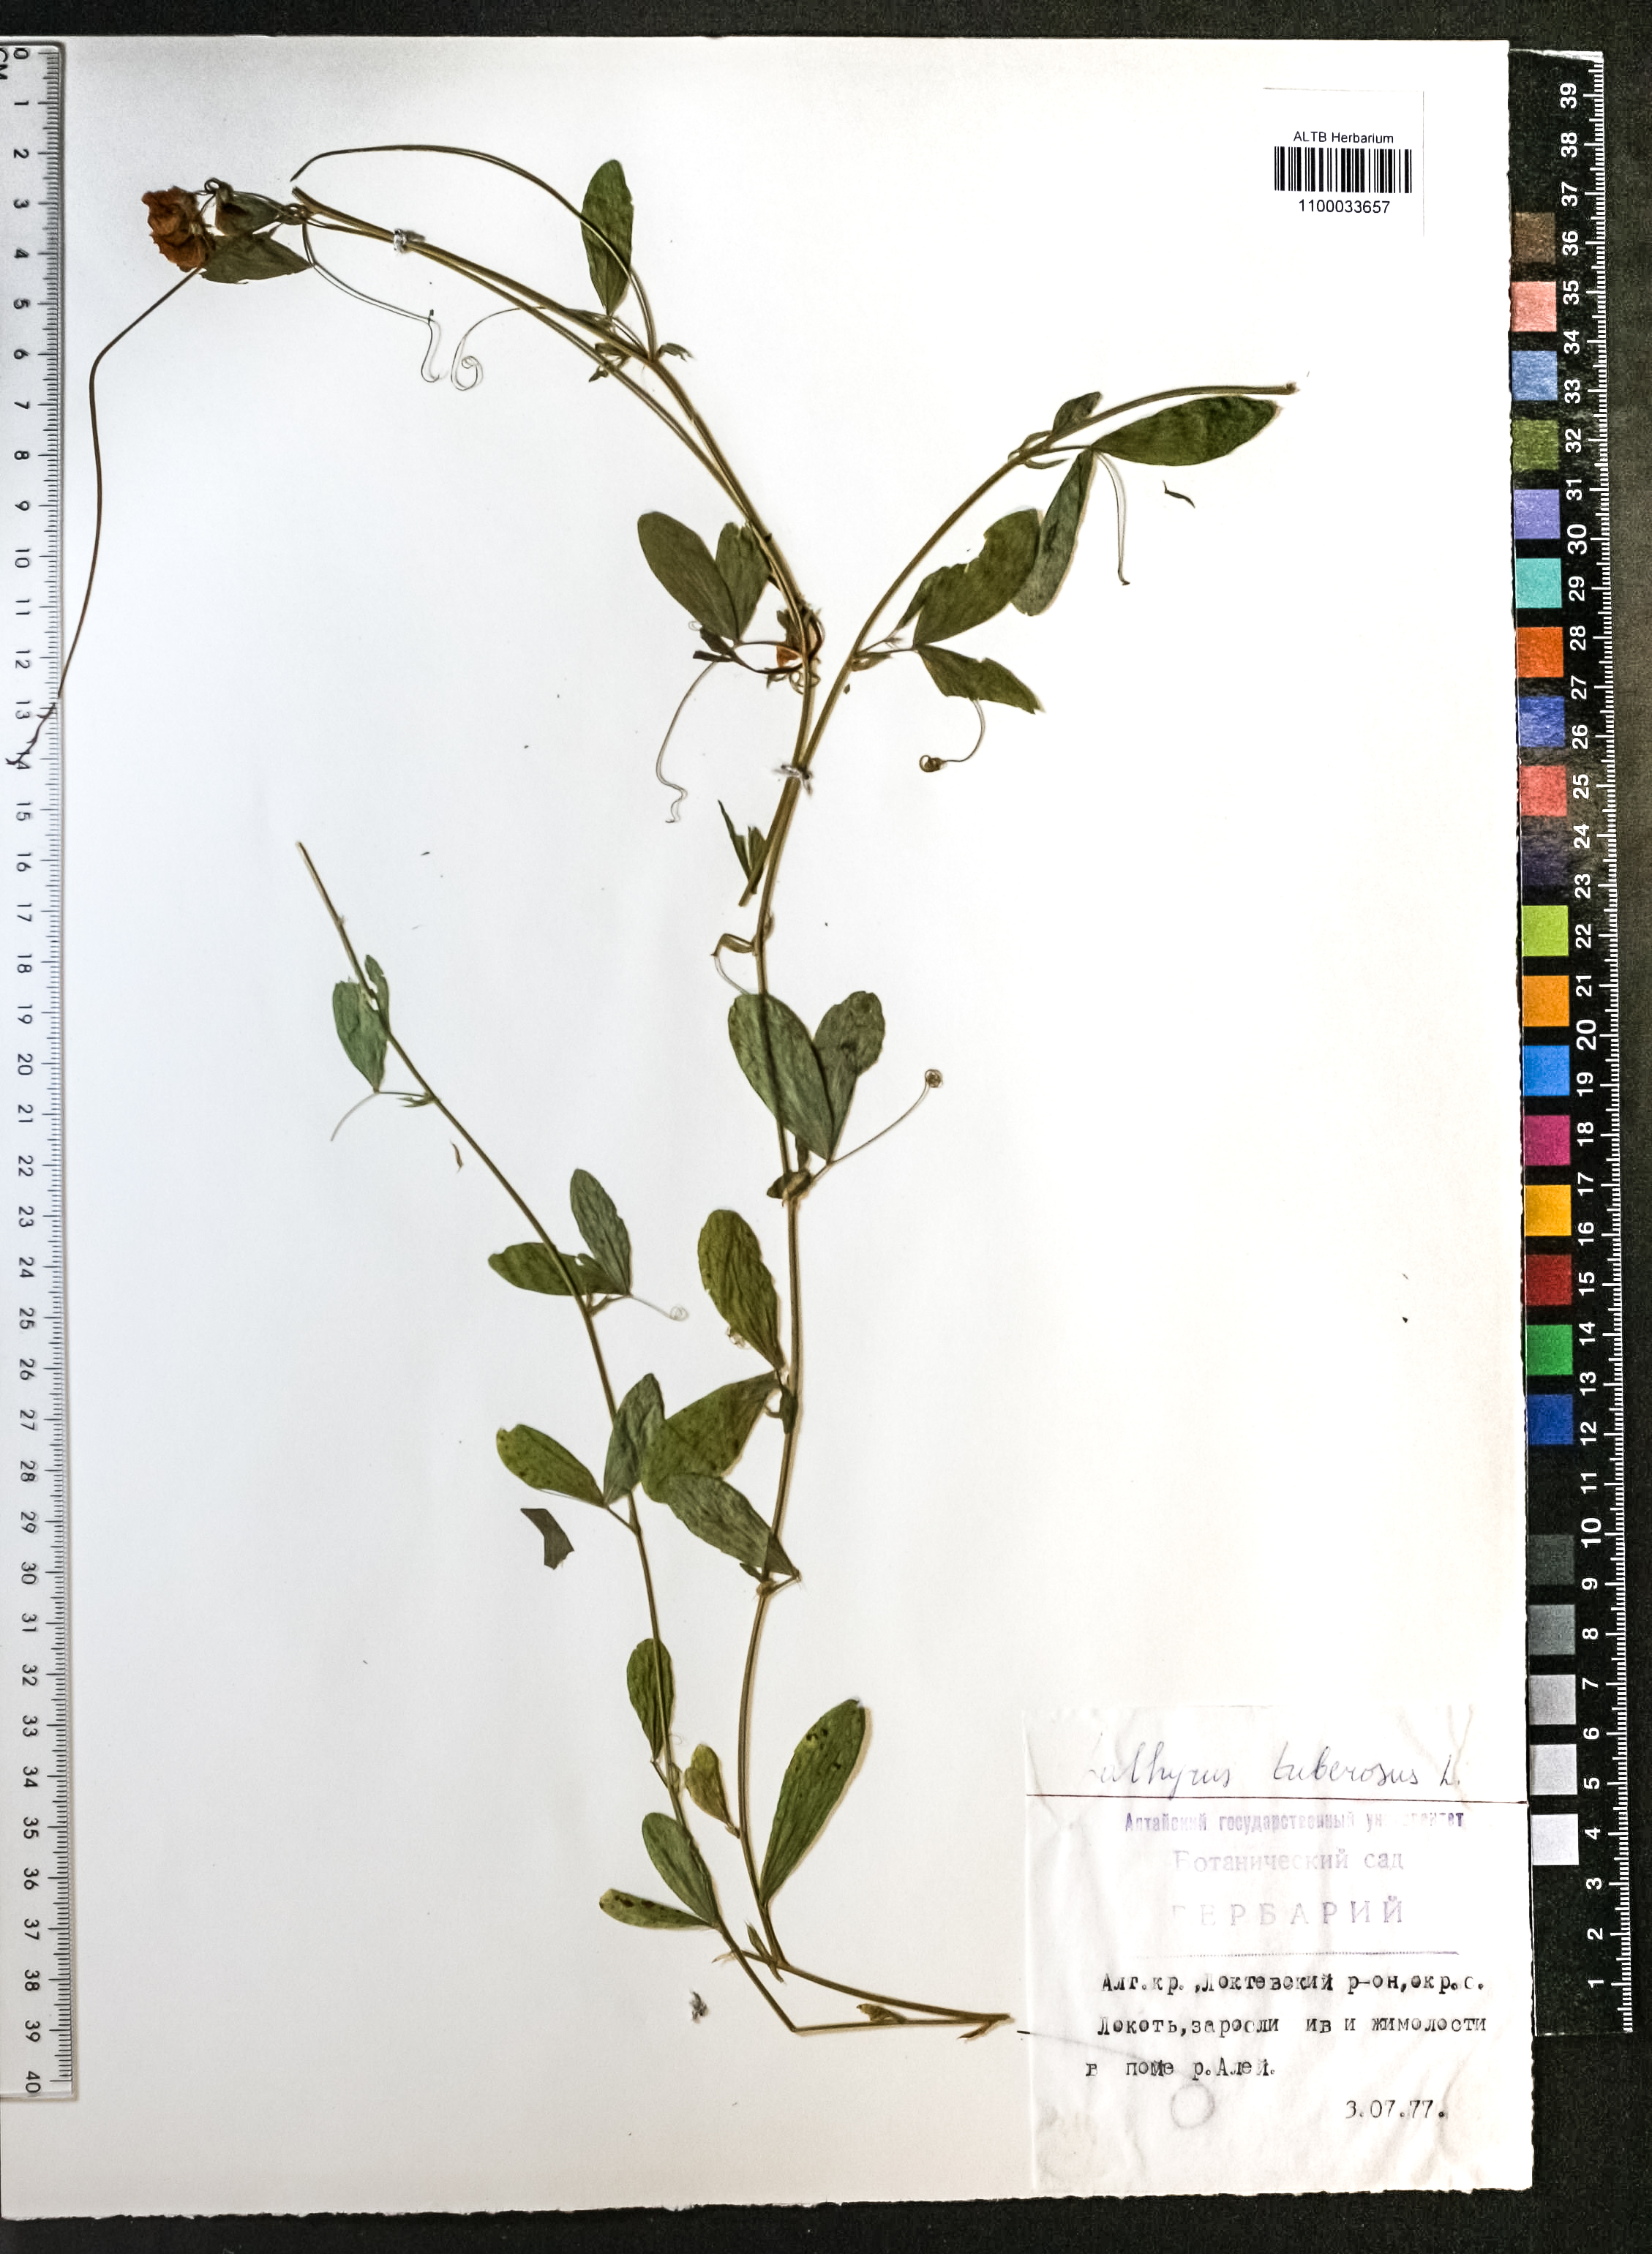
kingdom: Plantae
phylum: Tracheophyta
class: Magnoliopsida
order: Fabales
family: Fabaceae
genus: Lathyrus
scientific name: Lathyrus tuberosus
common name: Tuberous pea
